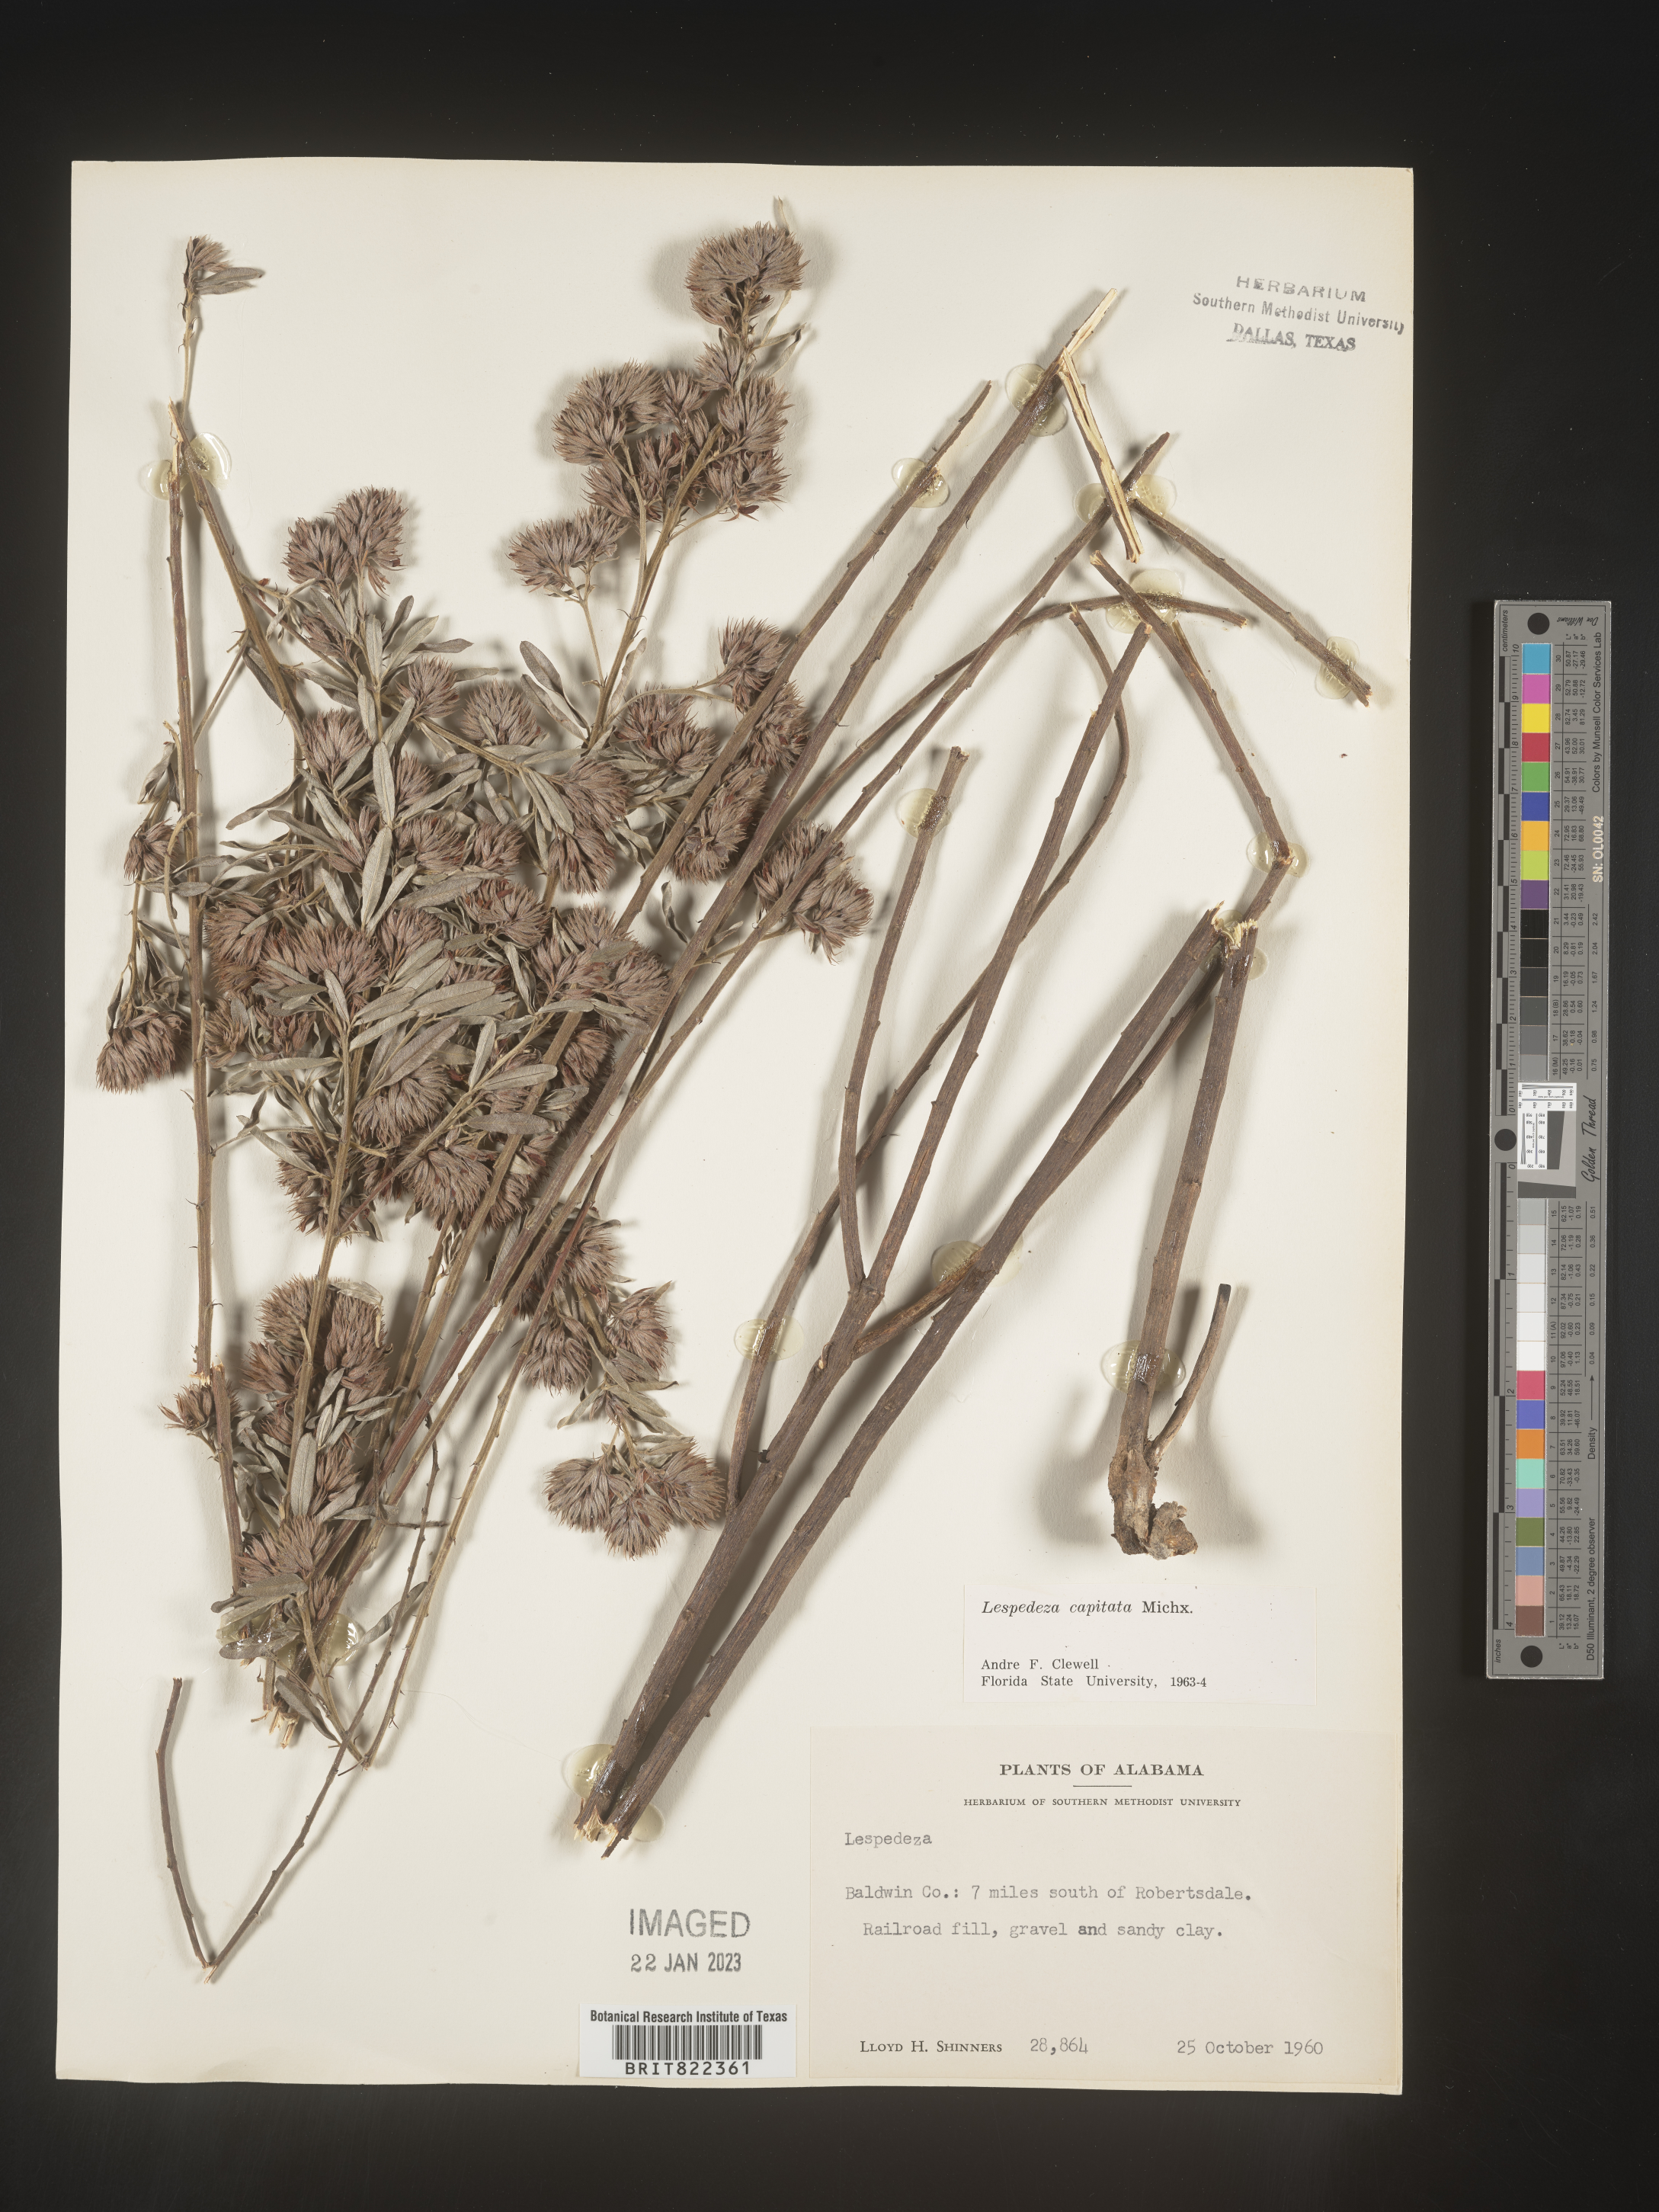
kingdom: Plantae
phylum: Tracheophyta
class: Magnoliopsida
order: Fabales
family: Fabaceae
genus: Lespedeza
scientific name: Lespedeza capitata
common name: Dusty clover
